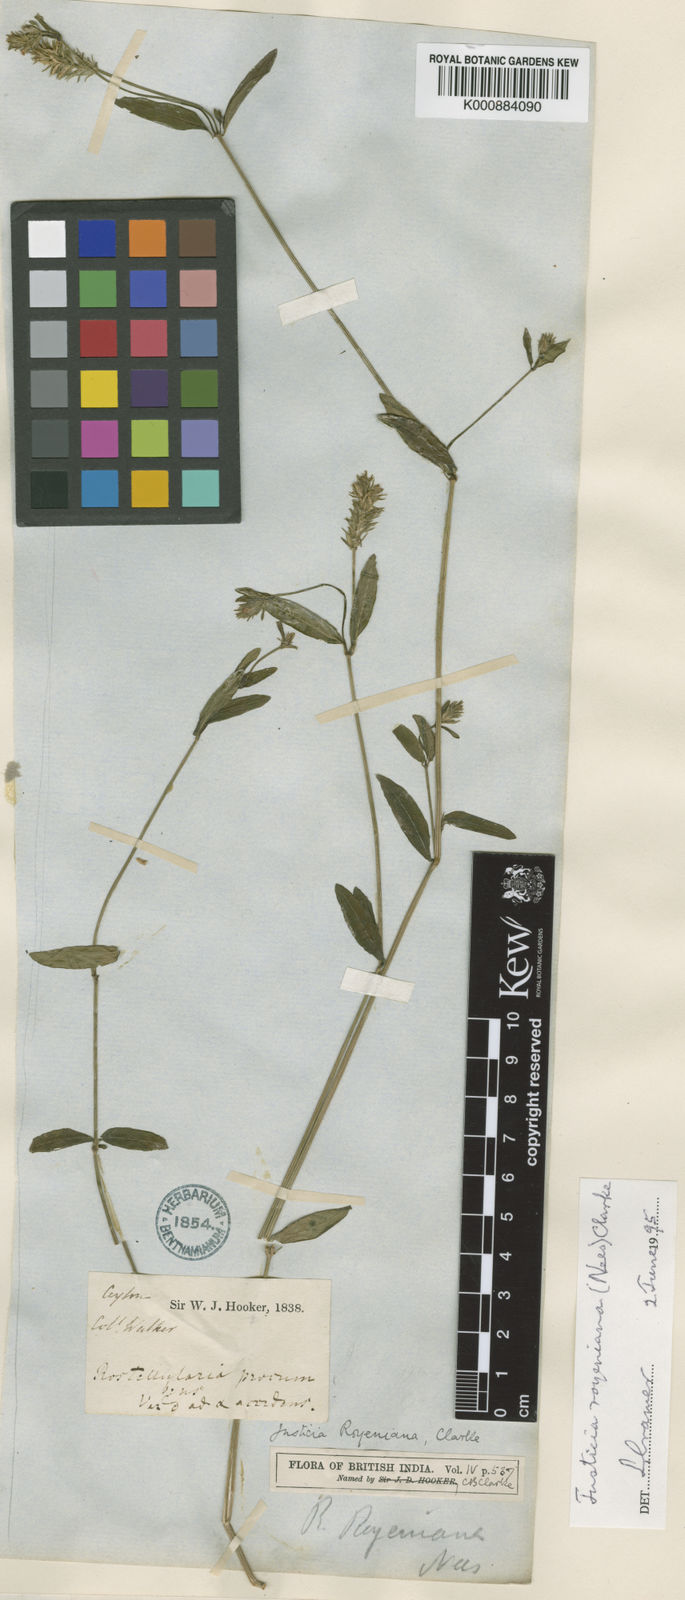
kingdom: Plantae
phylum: Tracheophyta
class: Magnoliopsida
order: Lamiales
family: Acanthaceae
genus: Rostellularia
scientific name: Rostellularia royeniana
